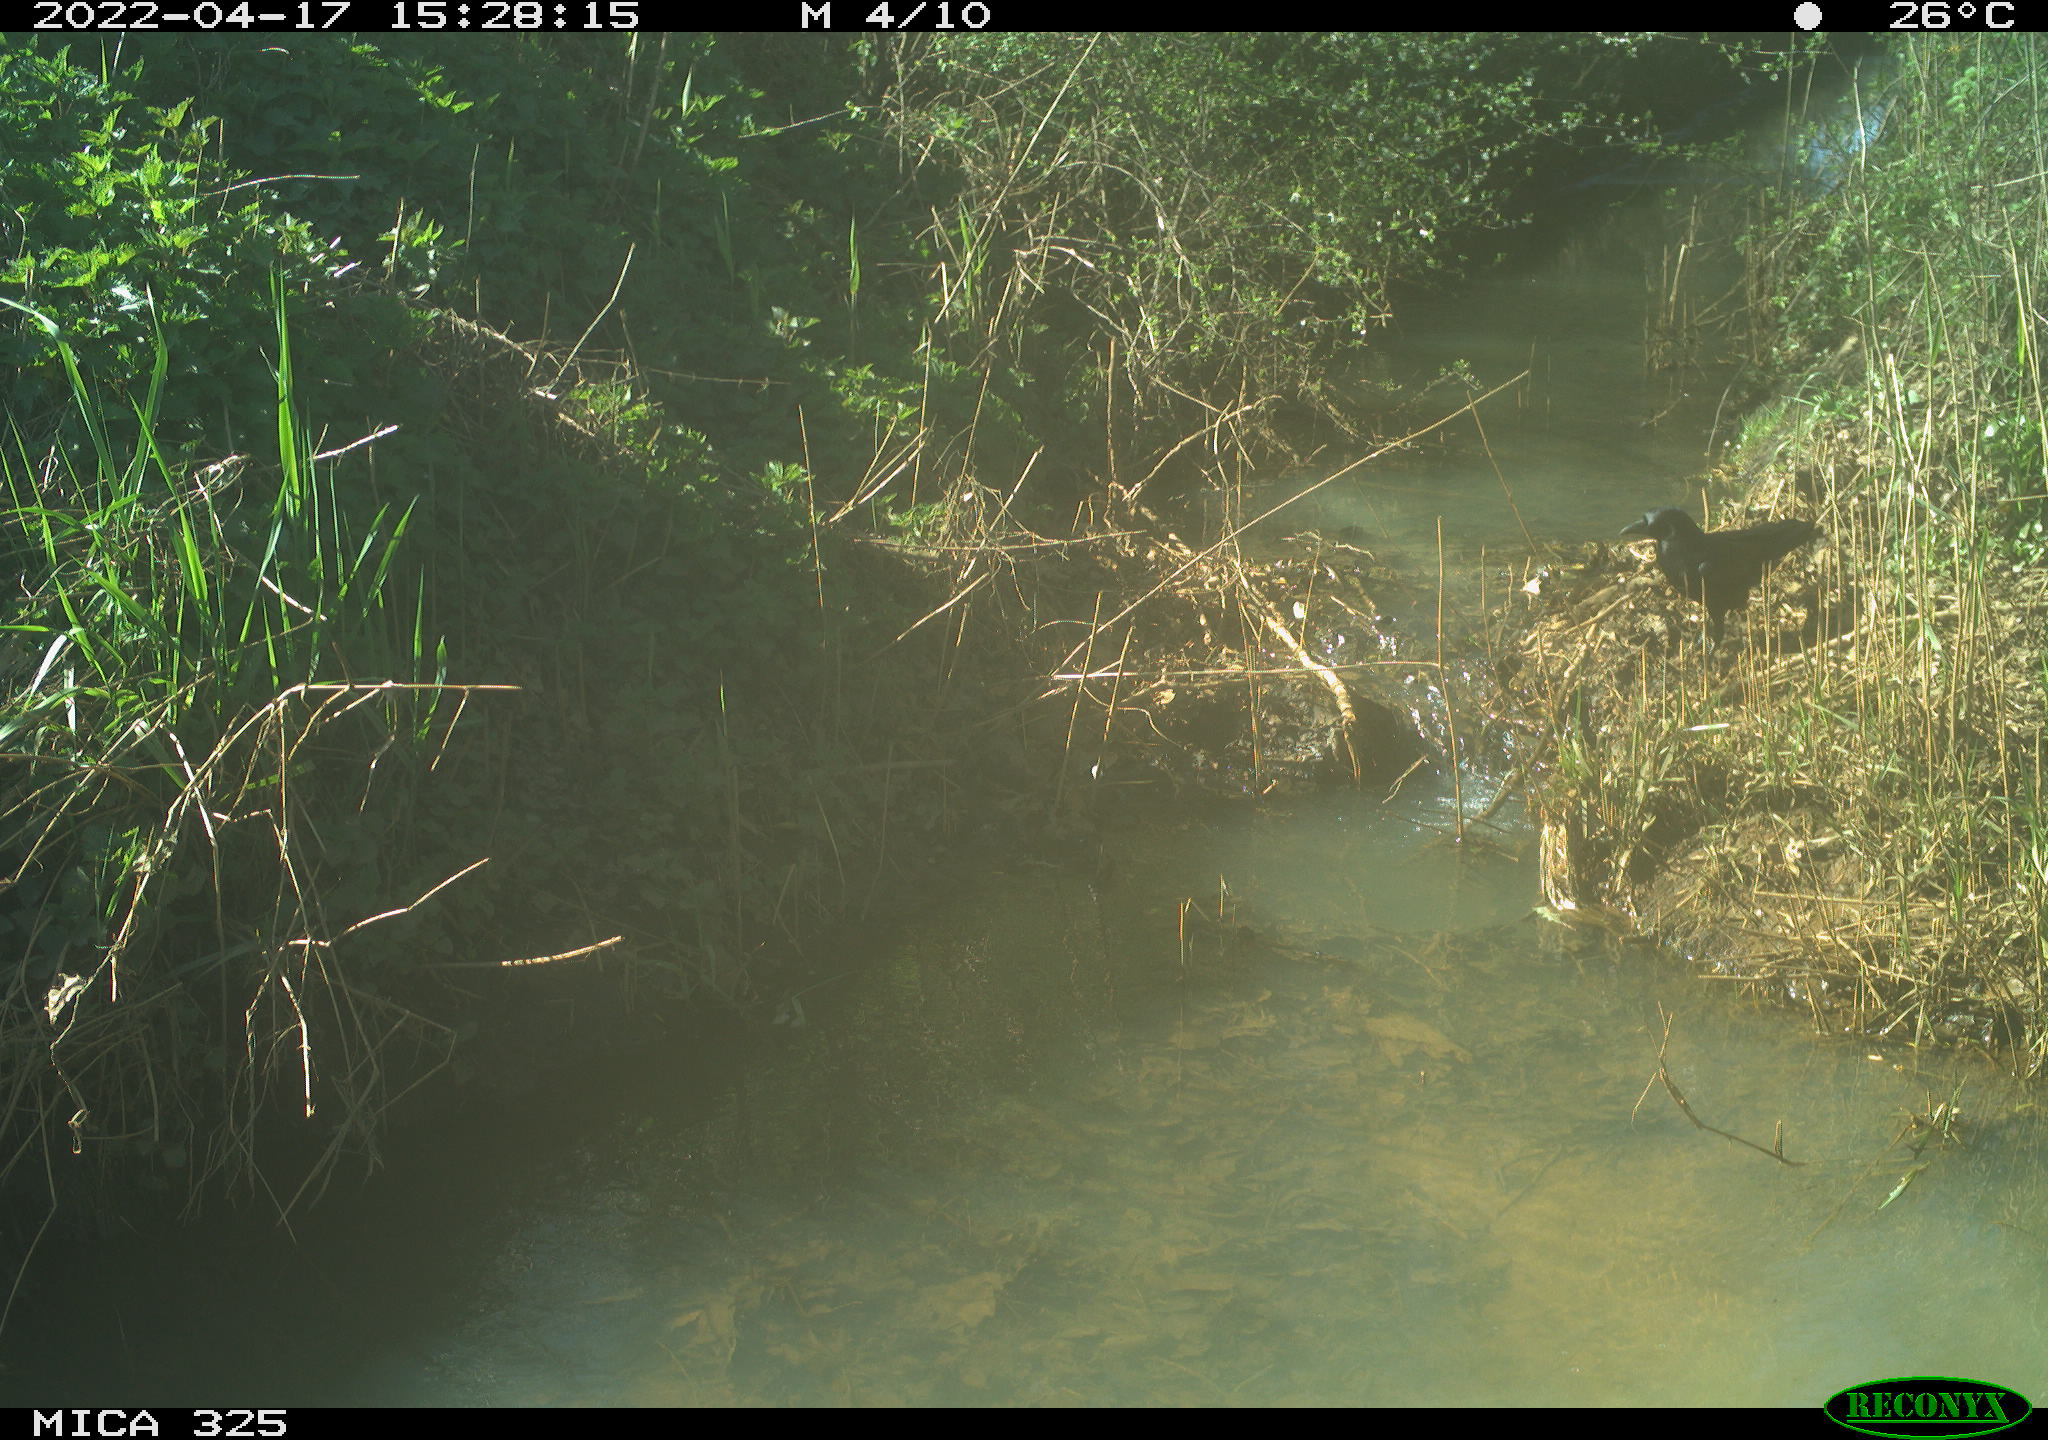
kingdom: Animalia
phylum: Chordata
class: Aves
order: Passeriformes
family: Corvidae
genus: Corvus
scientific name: Corvus corone
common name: Carrion crow
